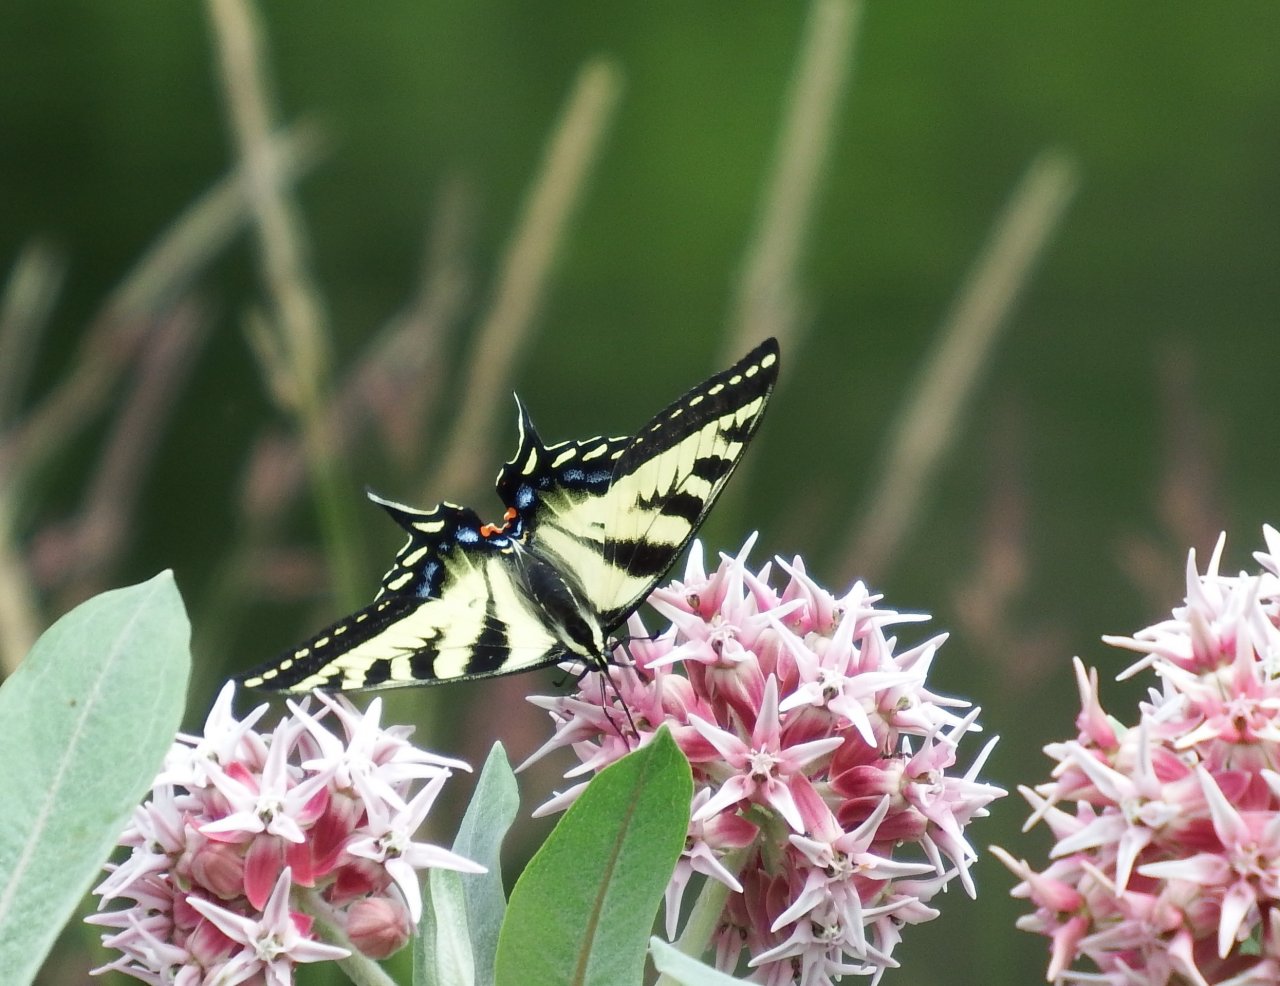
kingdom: Animalia
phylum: Arthropoda
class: Insecta
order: Lepidoptera
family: Papilionidae
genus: Pterourus
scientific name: Pterourus rutulus
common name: Western Tiger Swallowtail
